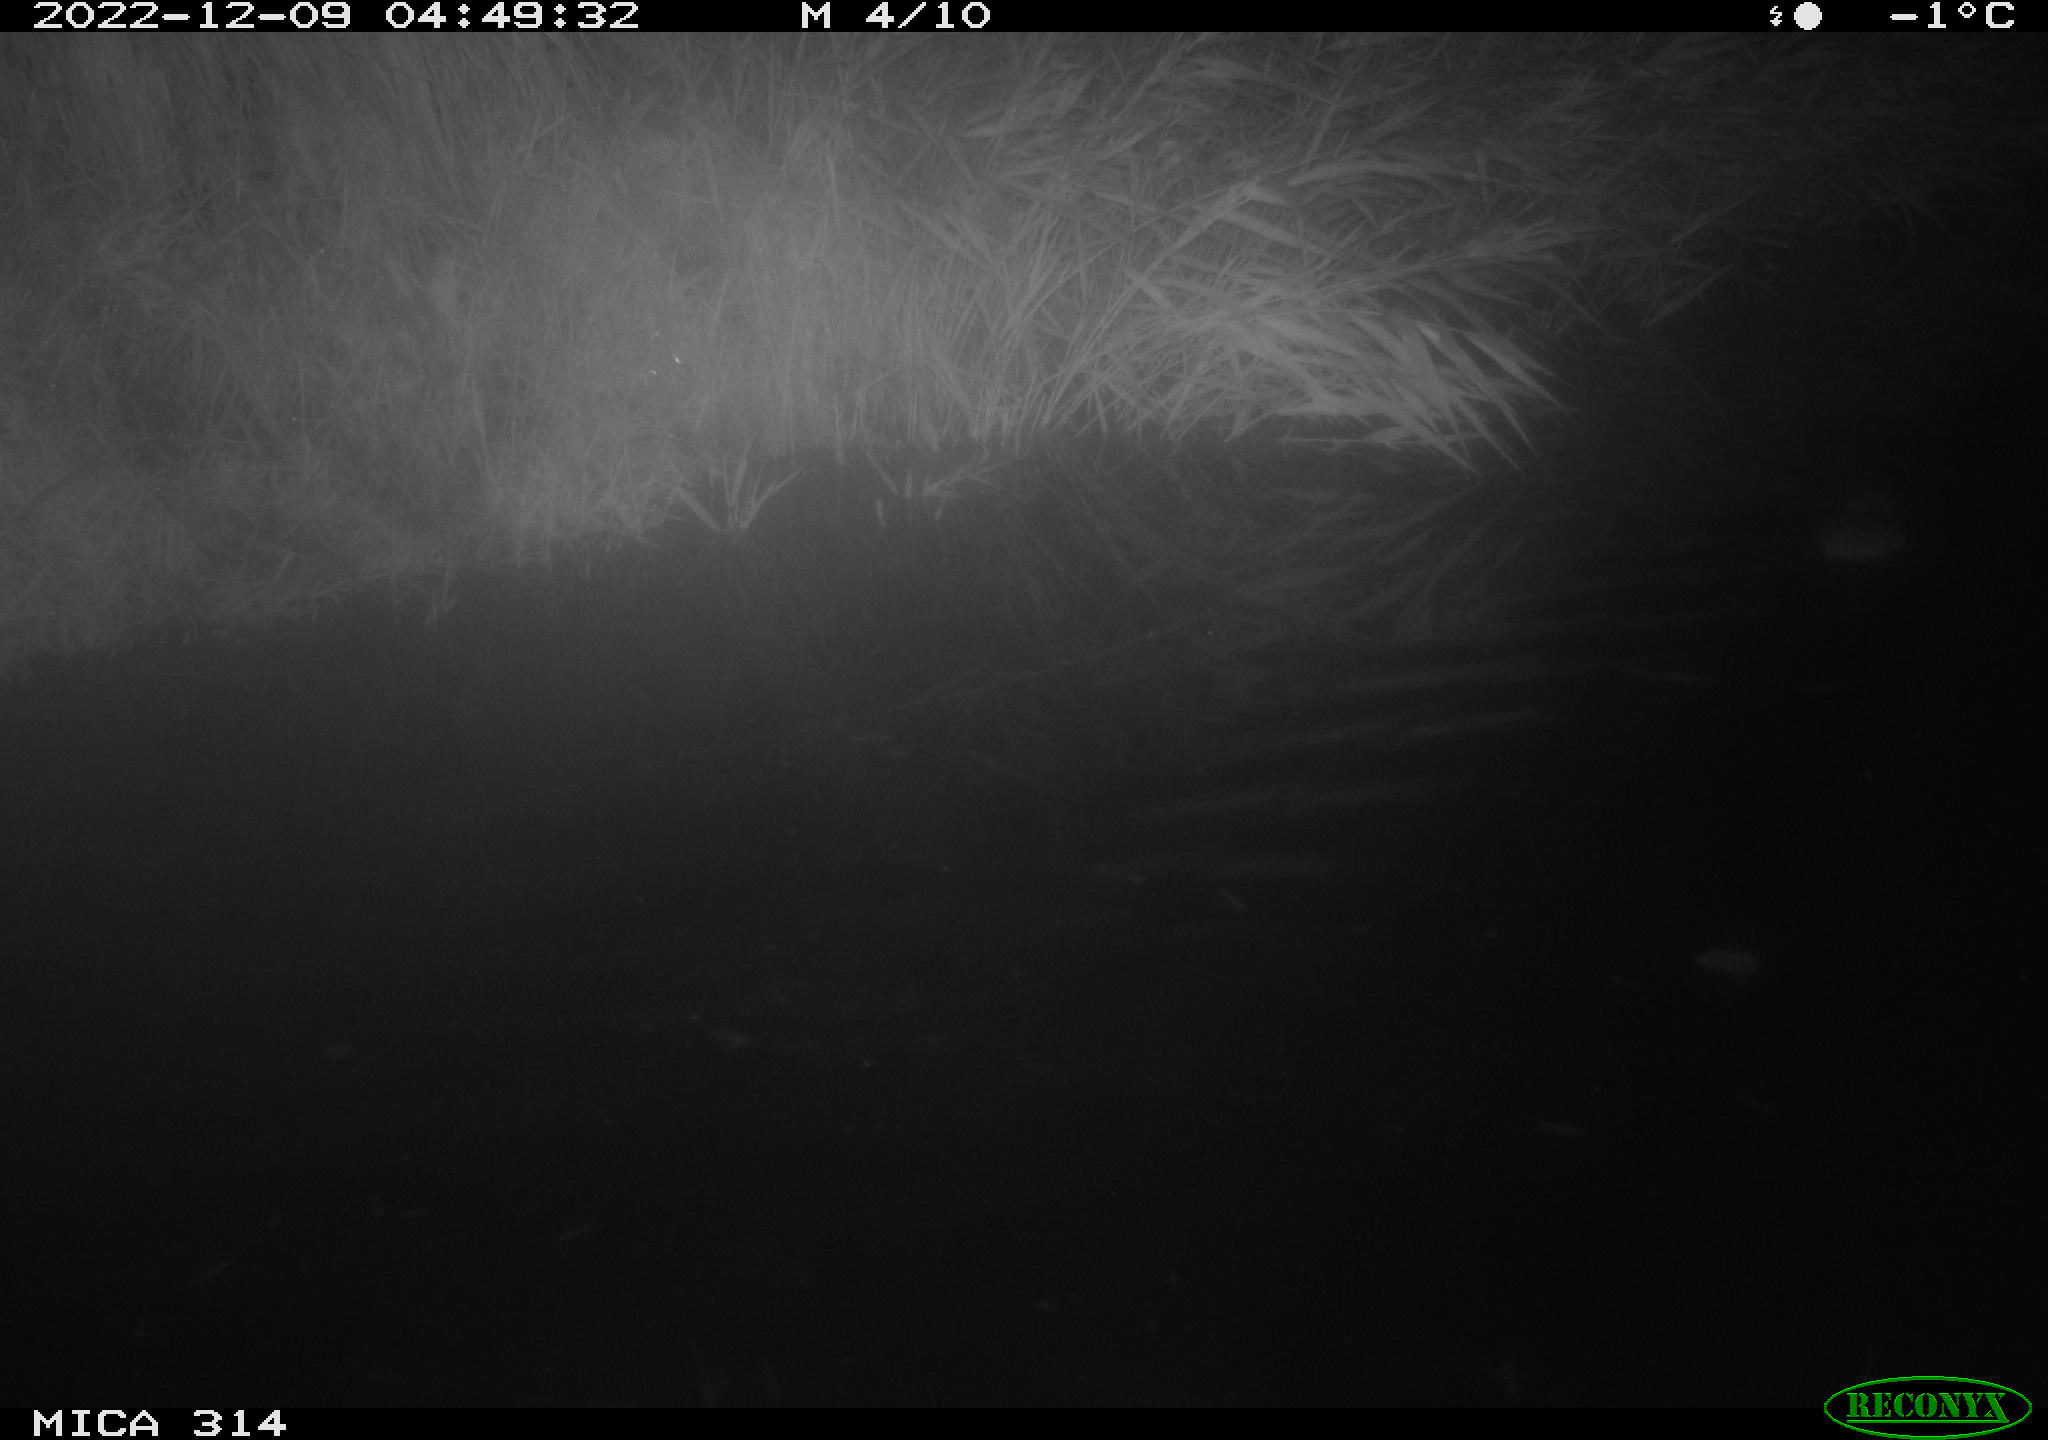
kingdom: Animalia
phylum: Chordata
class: Mammalia
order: Rodentia
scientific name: Rodentia
